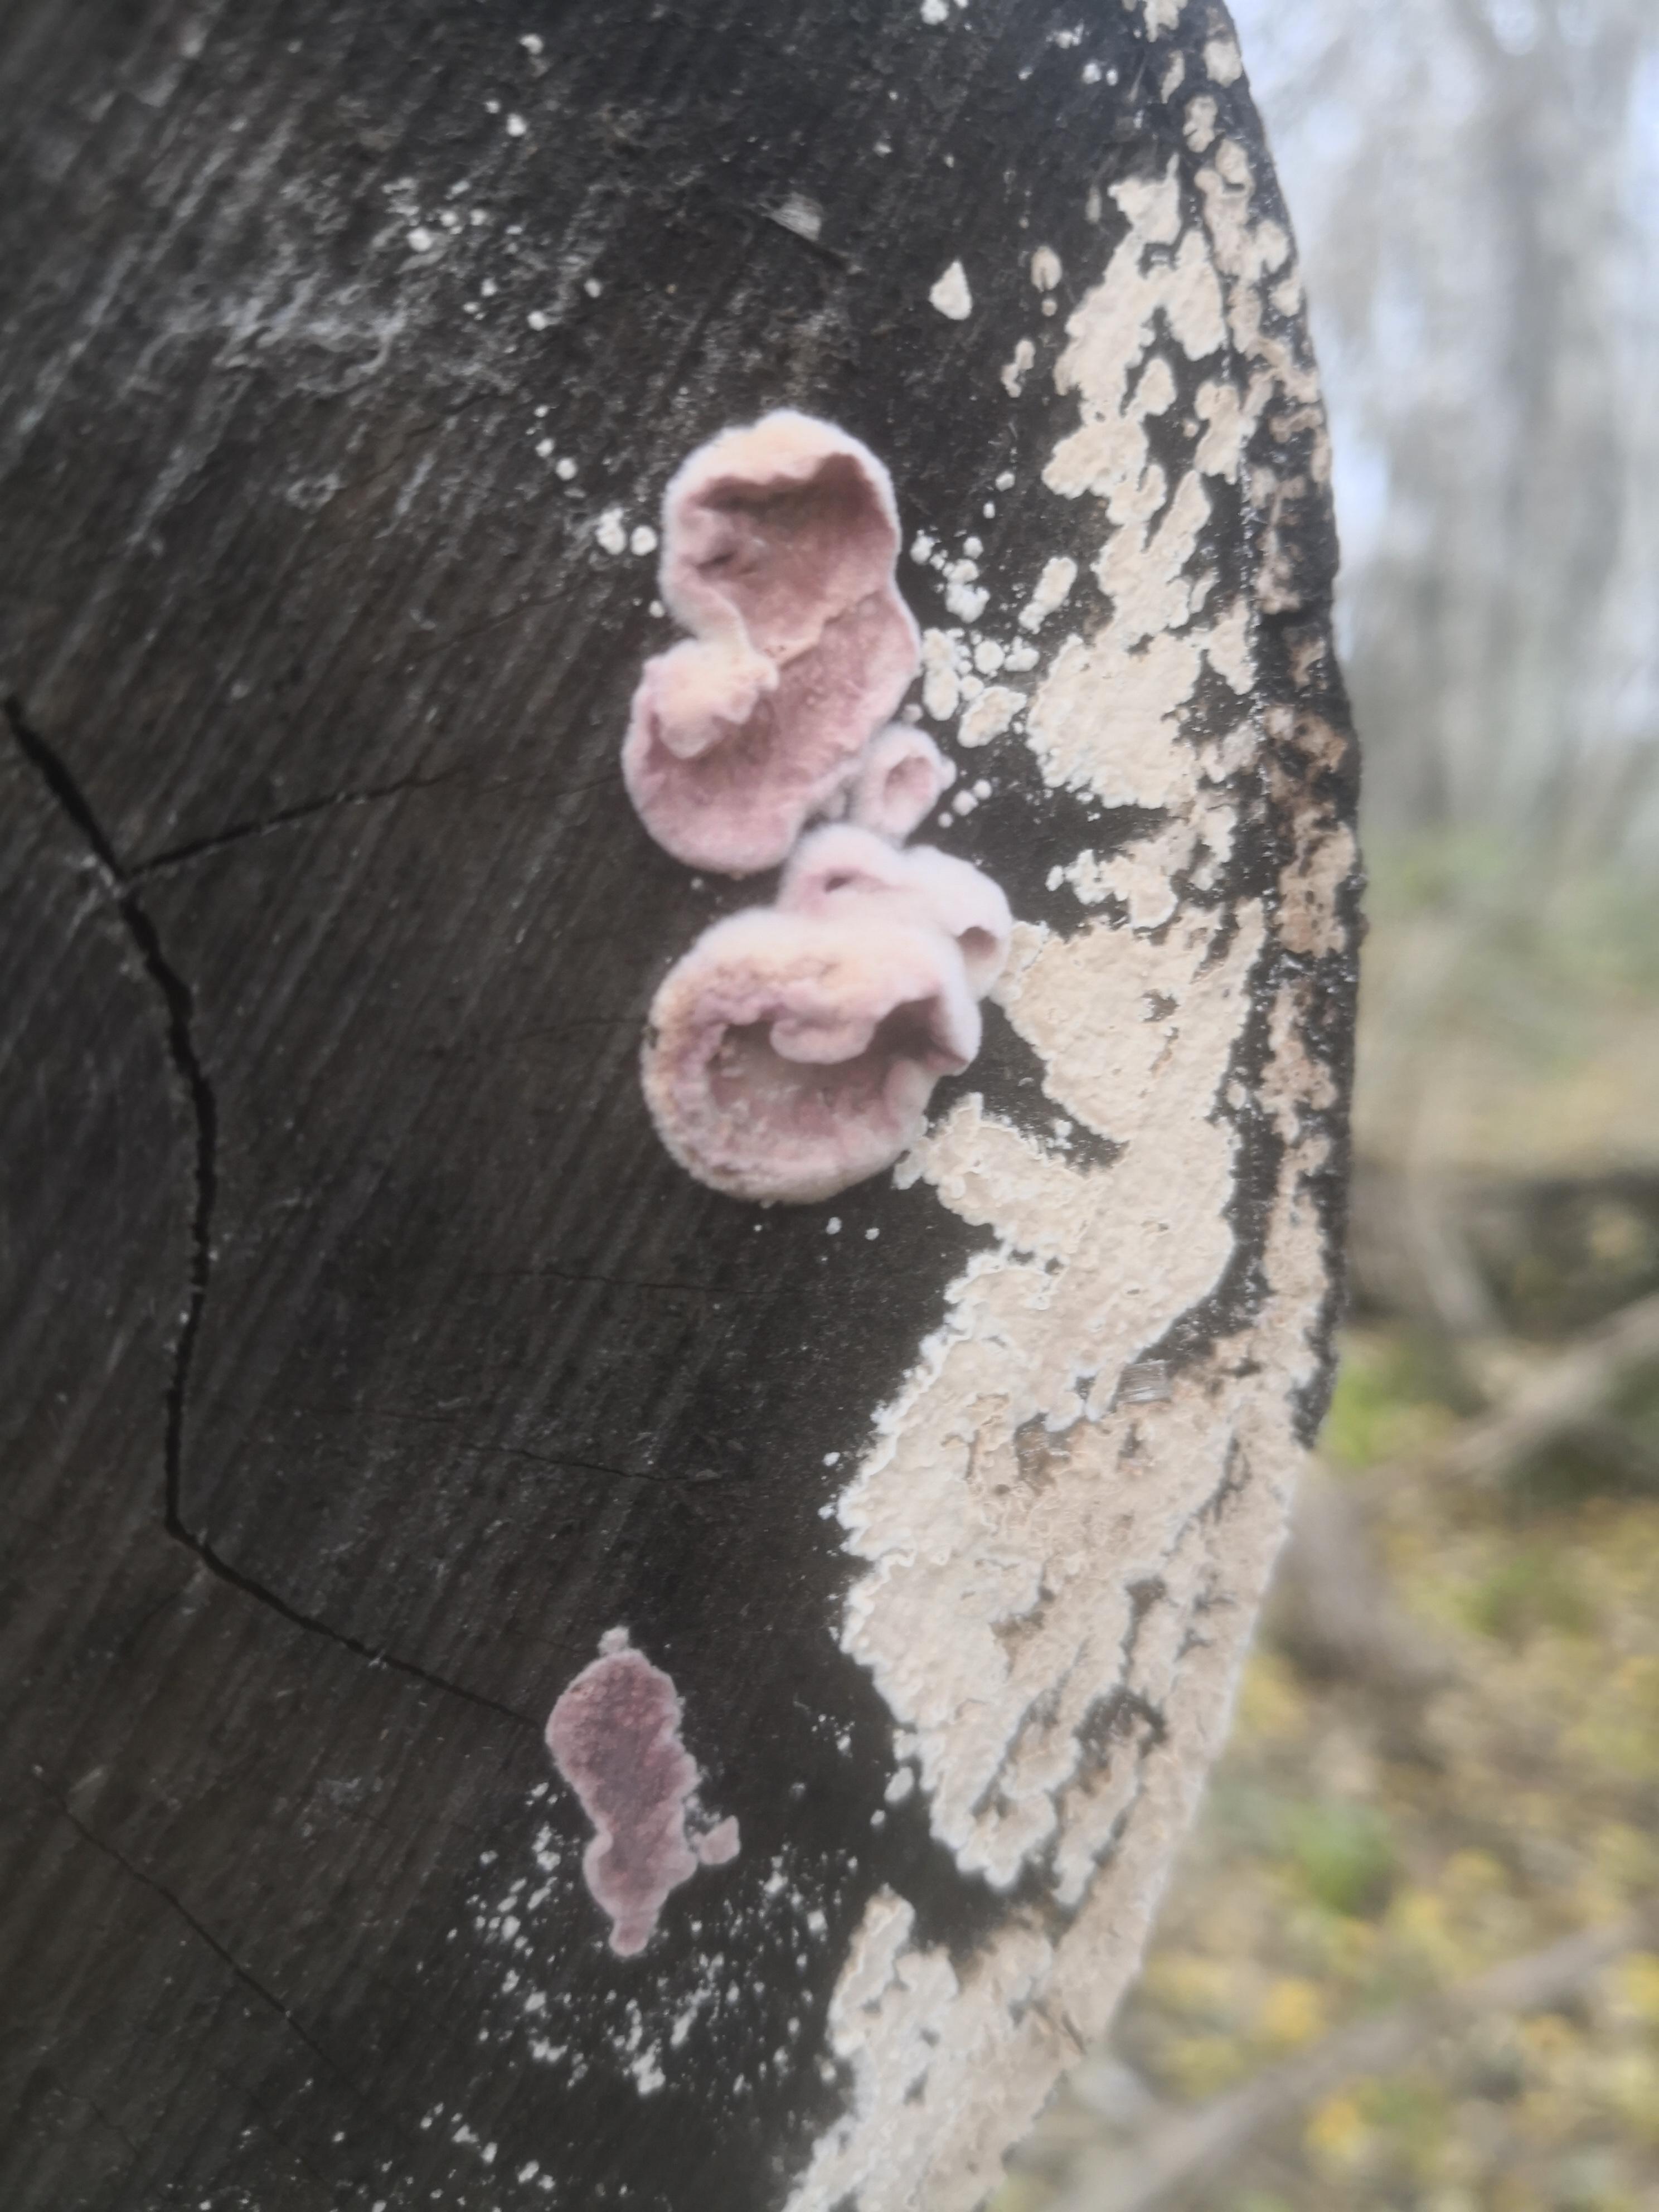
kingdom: Fungi
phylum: Basidiomycota
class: Agaricomycetes
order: Agaricales
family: Cyphellaceae
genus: Chondrostereum
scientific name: Chondrostereum purpureum
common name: purpurlædersvamp
